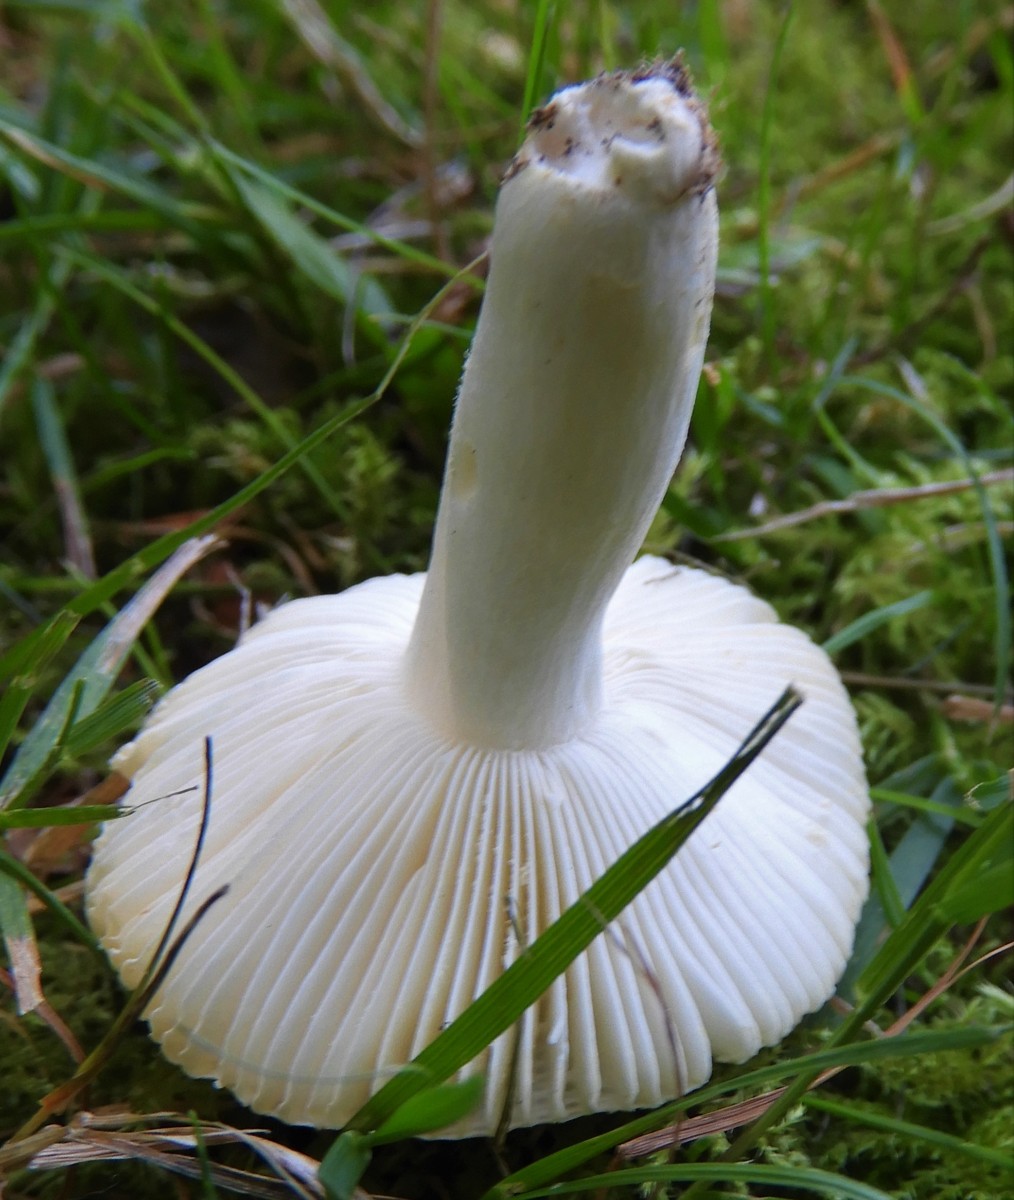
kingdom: Fungi
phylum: Basidiomycota
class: Agaricomycetes
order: Russulales
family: Russulaceae
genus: Russula
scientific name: Russula solaris
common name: sol-skørhat
